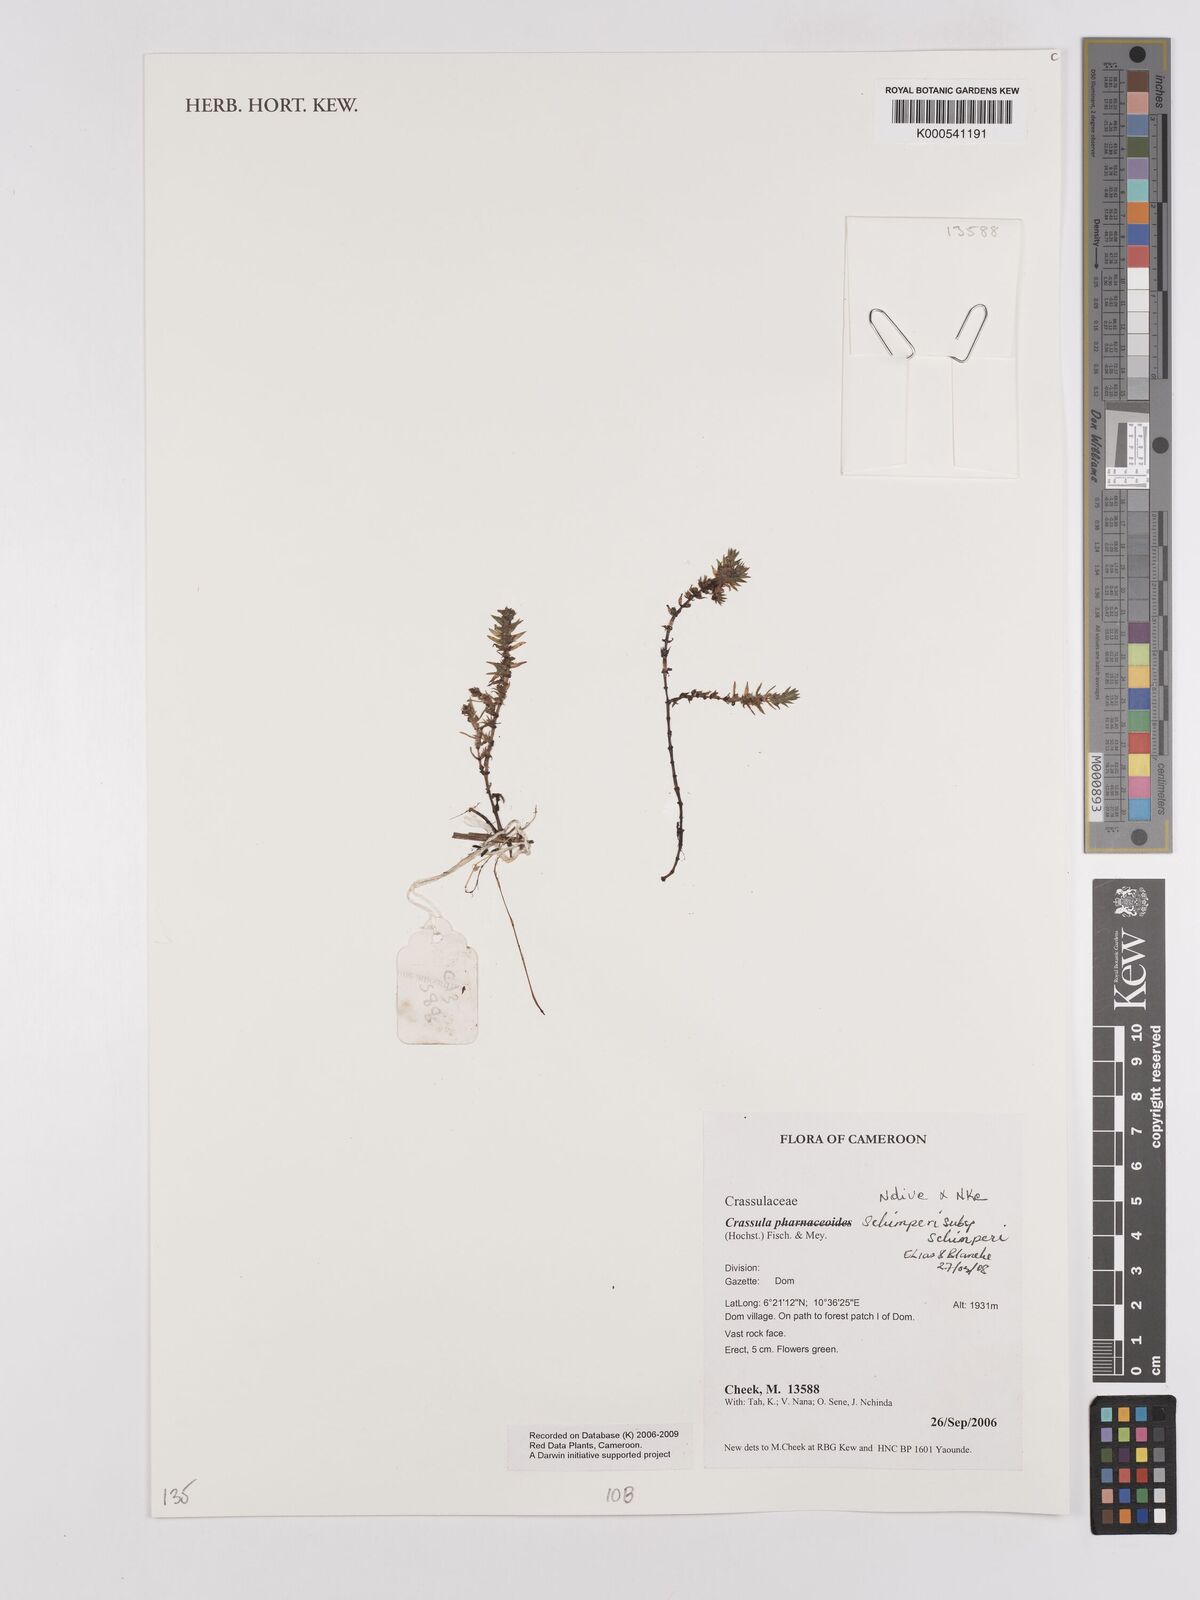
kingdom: Plantae
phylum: Tracheophyta
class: Magnoliopsida
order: Saxifragales
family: Crassulaceae
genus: Crassula
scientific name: Crassula schimperi
